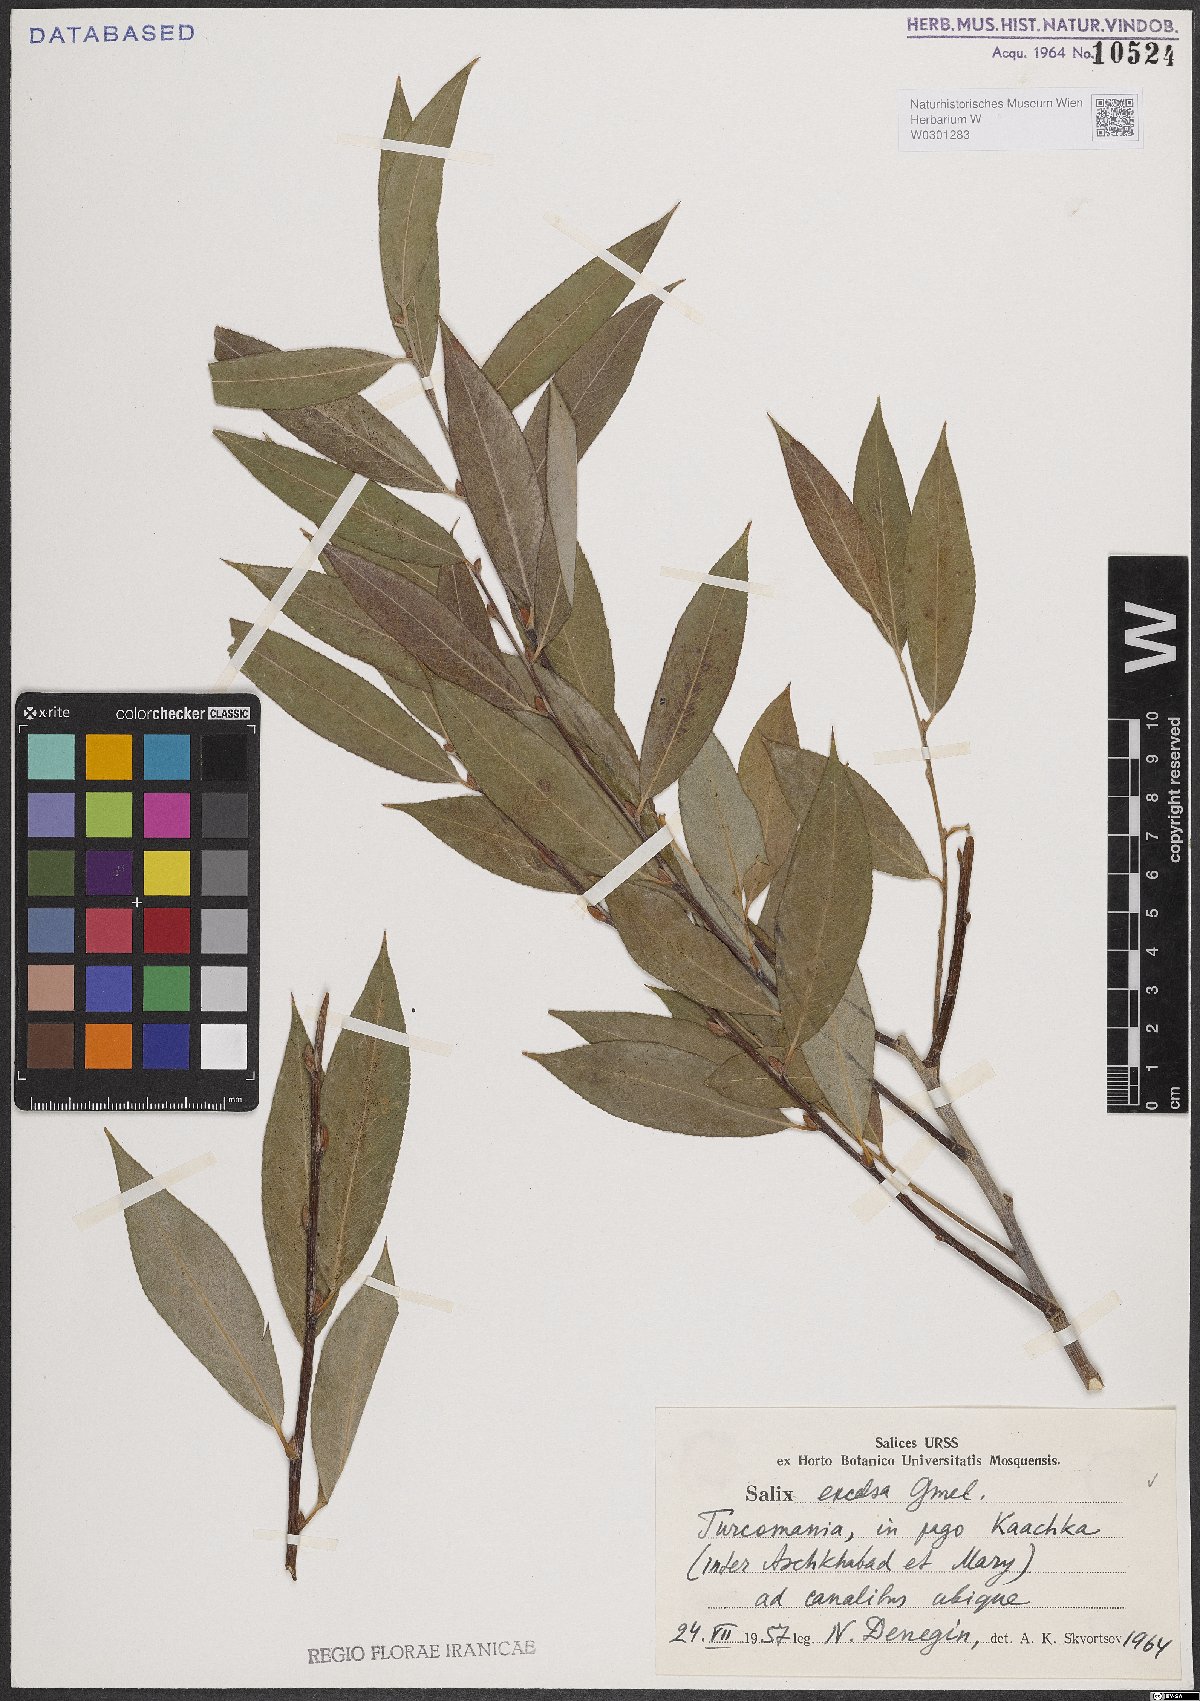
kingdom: Plantae
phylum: Tracheophyta
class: Magnoliopsida
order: Malpighiales
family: Salicaceae
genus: Salix
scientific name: Salix excelsa
